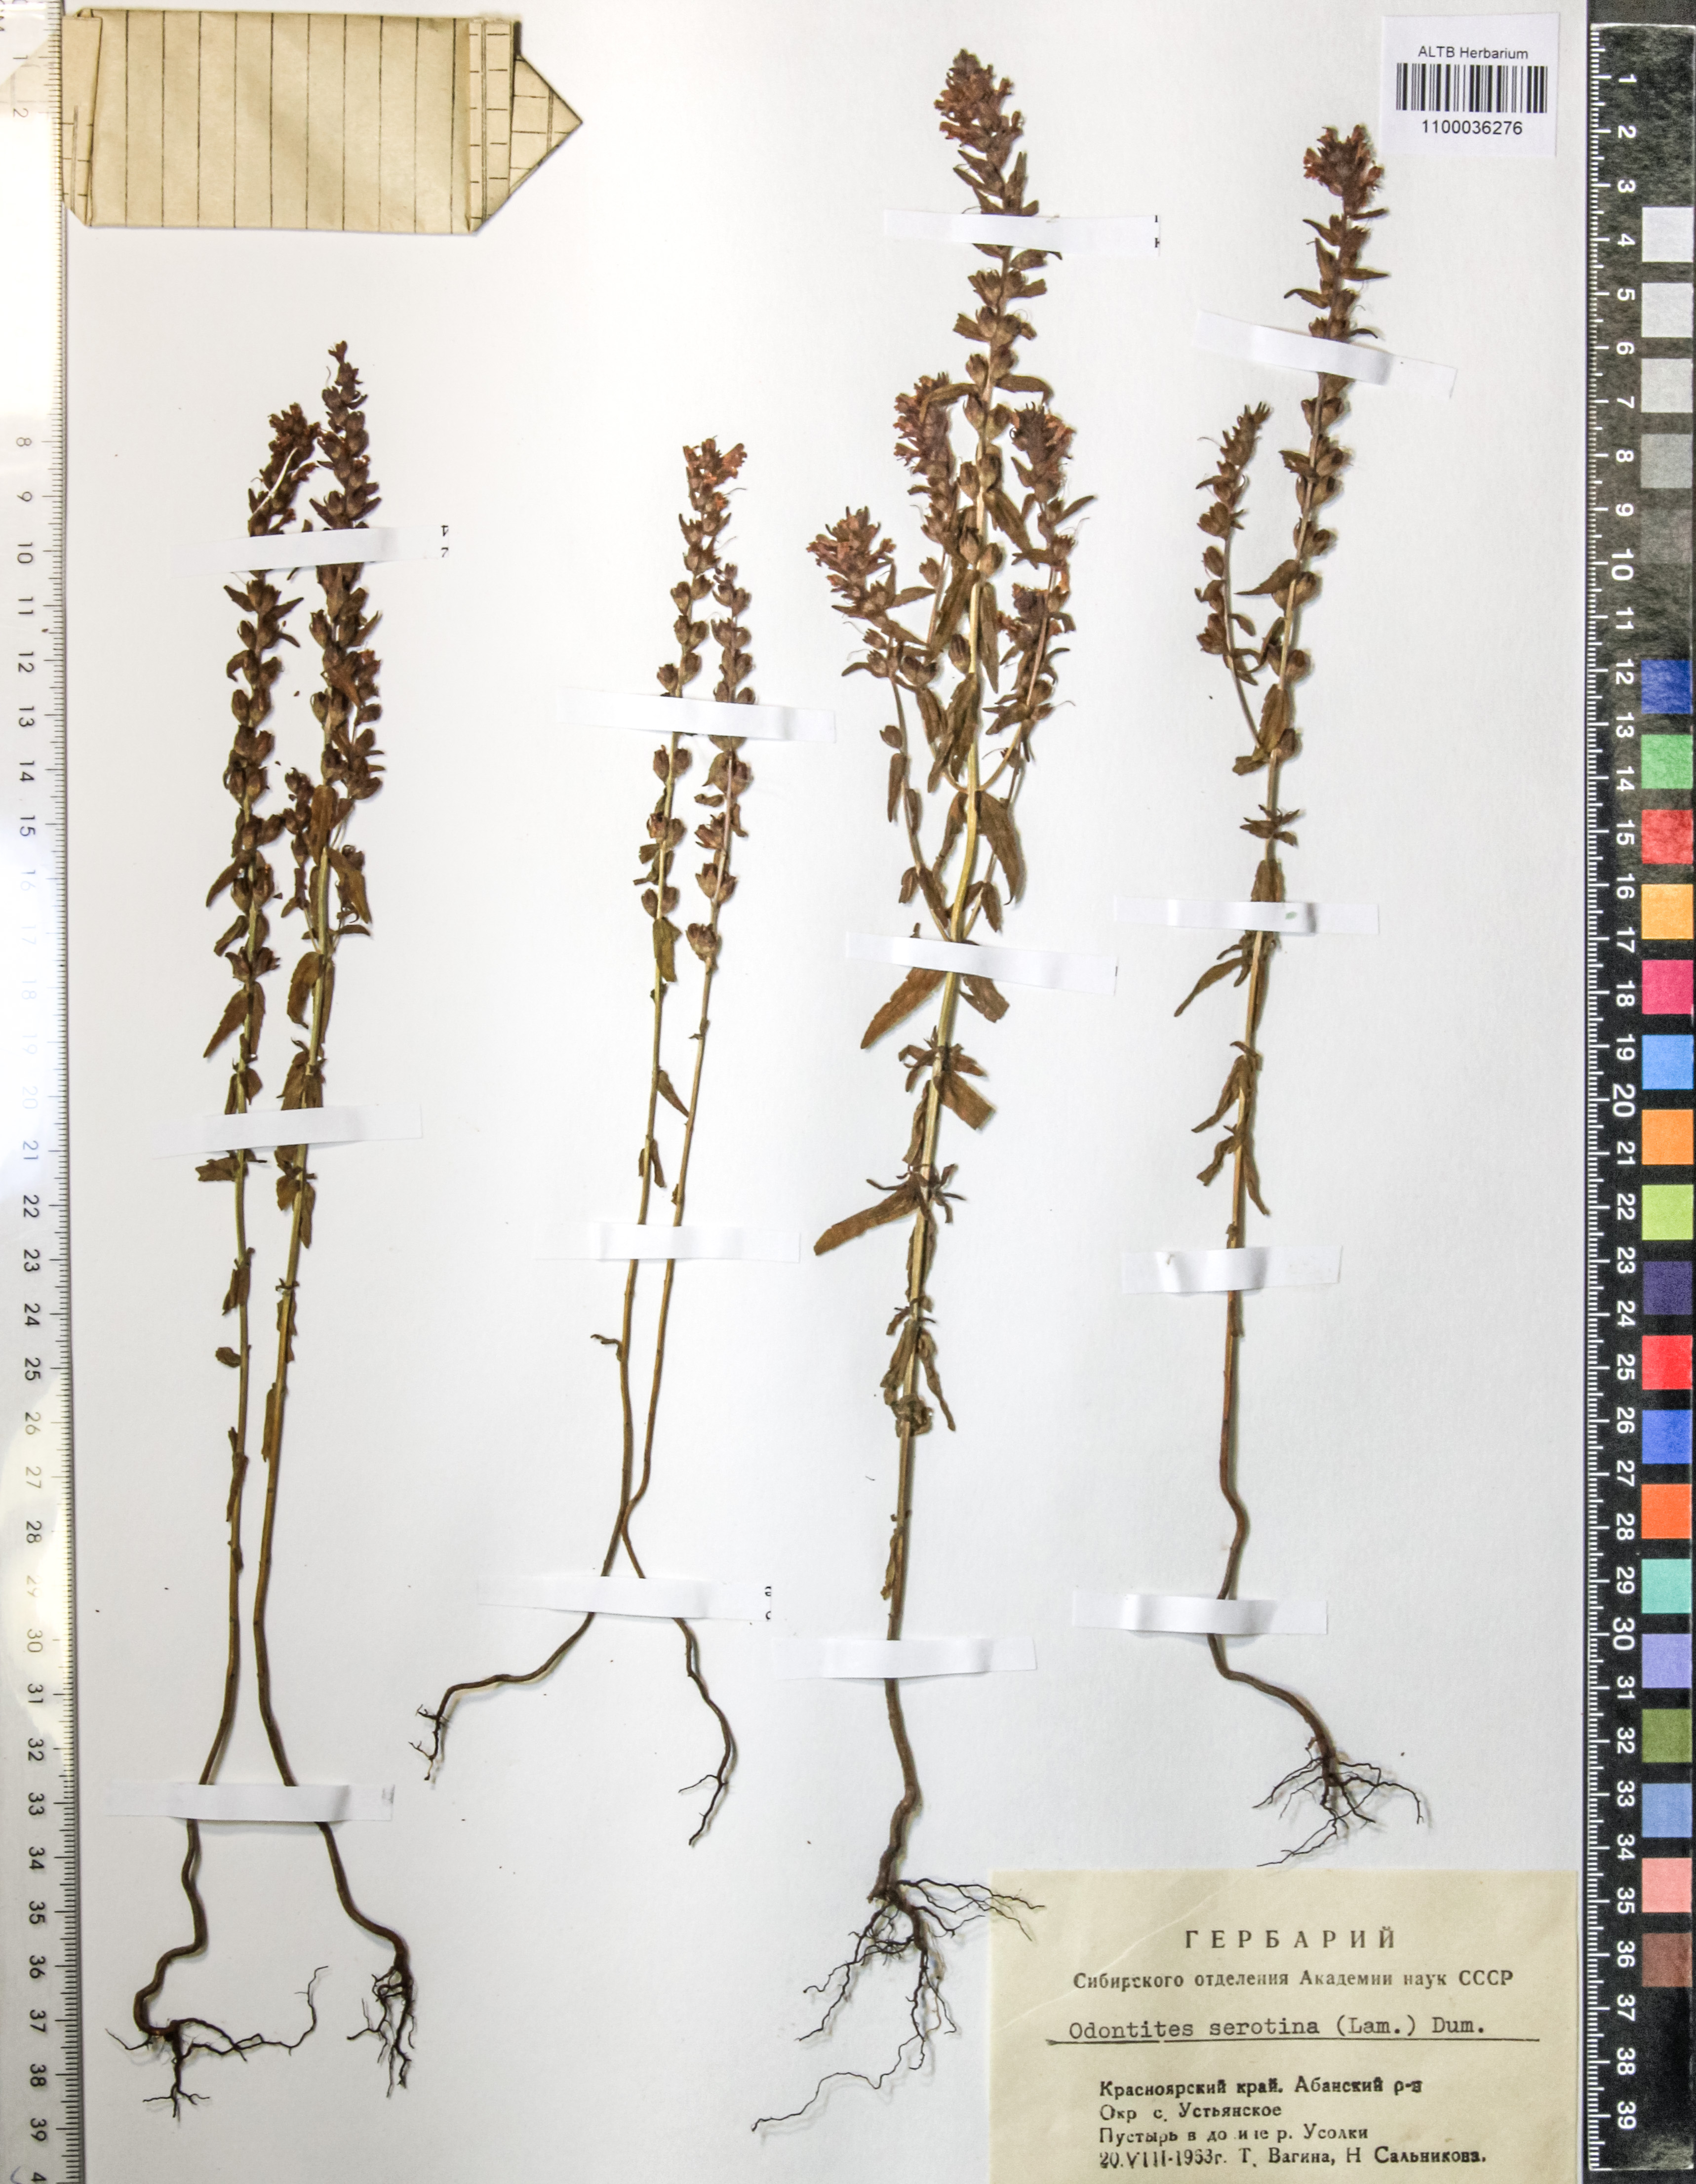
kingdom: Plantae
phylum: Tracheophyta
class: Magnoliopsida
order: Lamiales
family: Orobanchaceae
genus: Odontites
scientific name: Odontites vulgaris
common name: Broomrape
